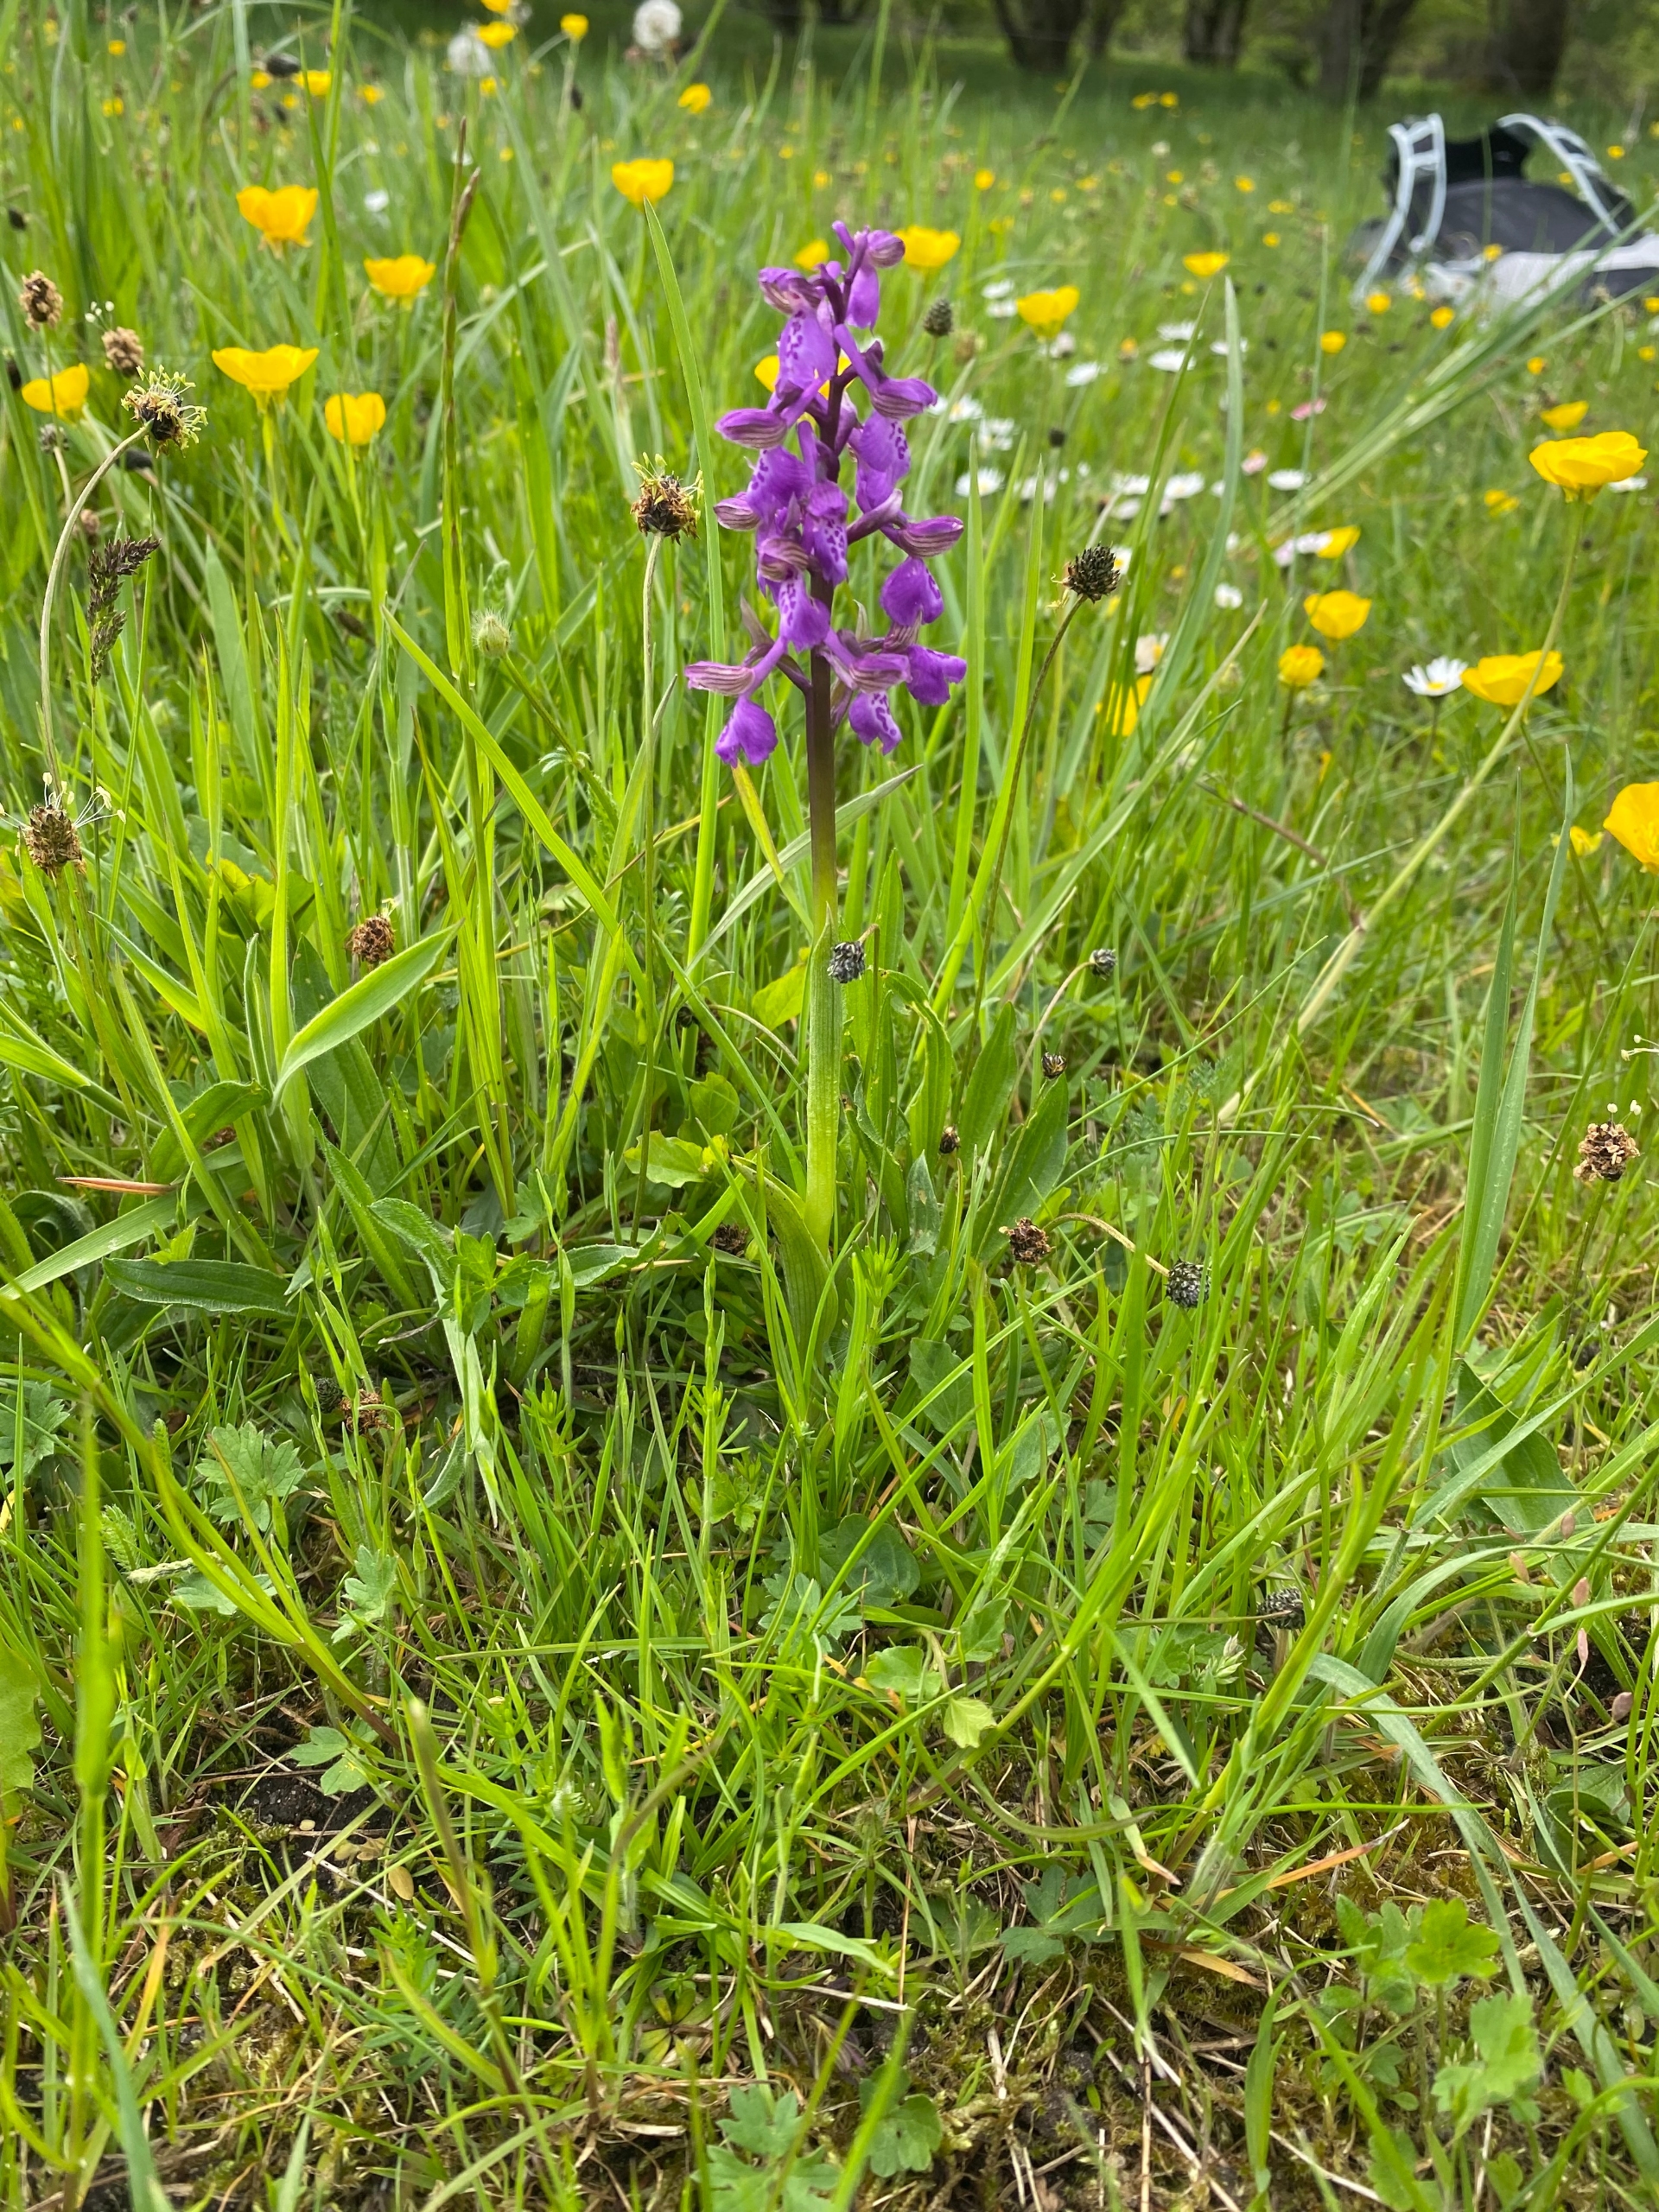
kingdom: Plantae
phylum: Tracheophyta
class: Liliopsida
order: Asparagales
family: Orchidaceae
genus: Anacamptis
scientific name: Anacamptis morio
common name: Salepgøgeurt
